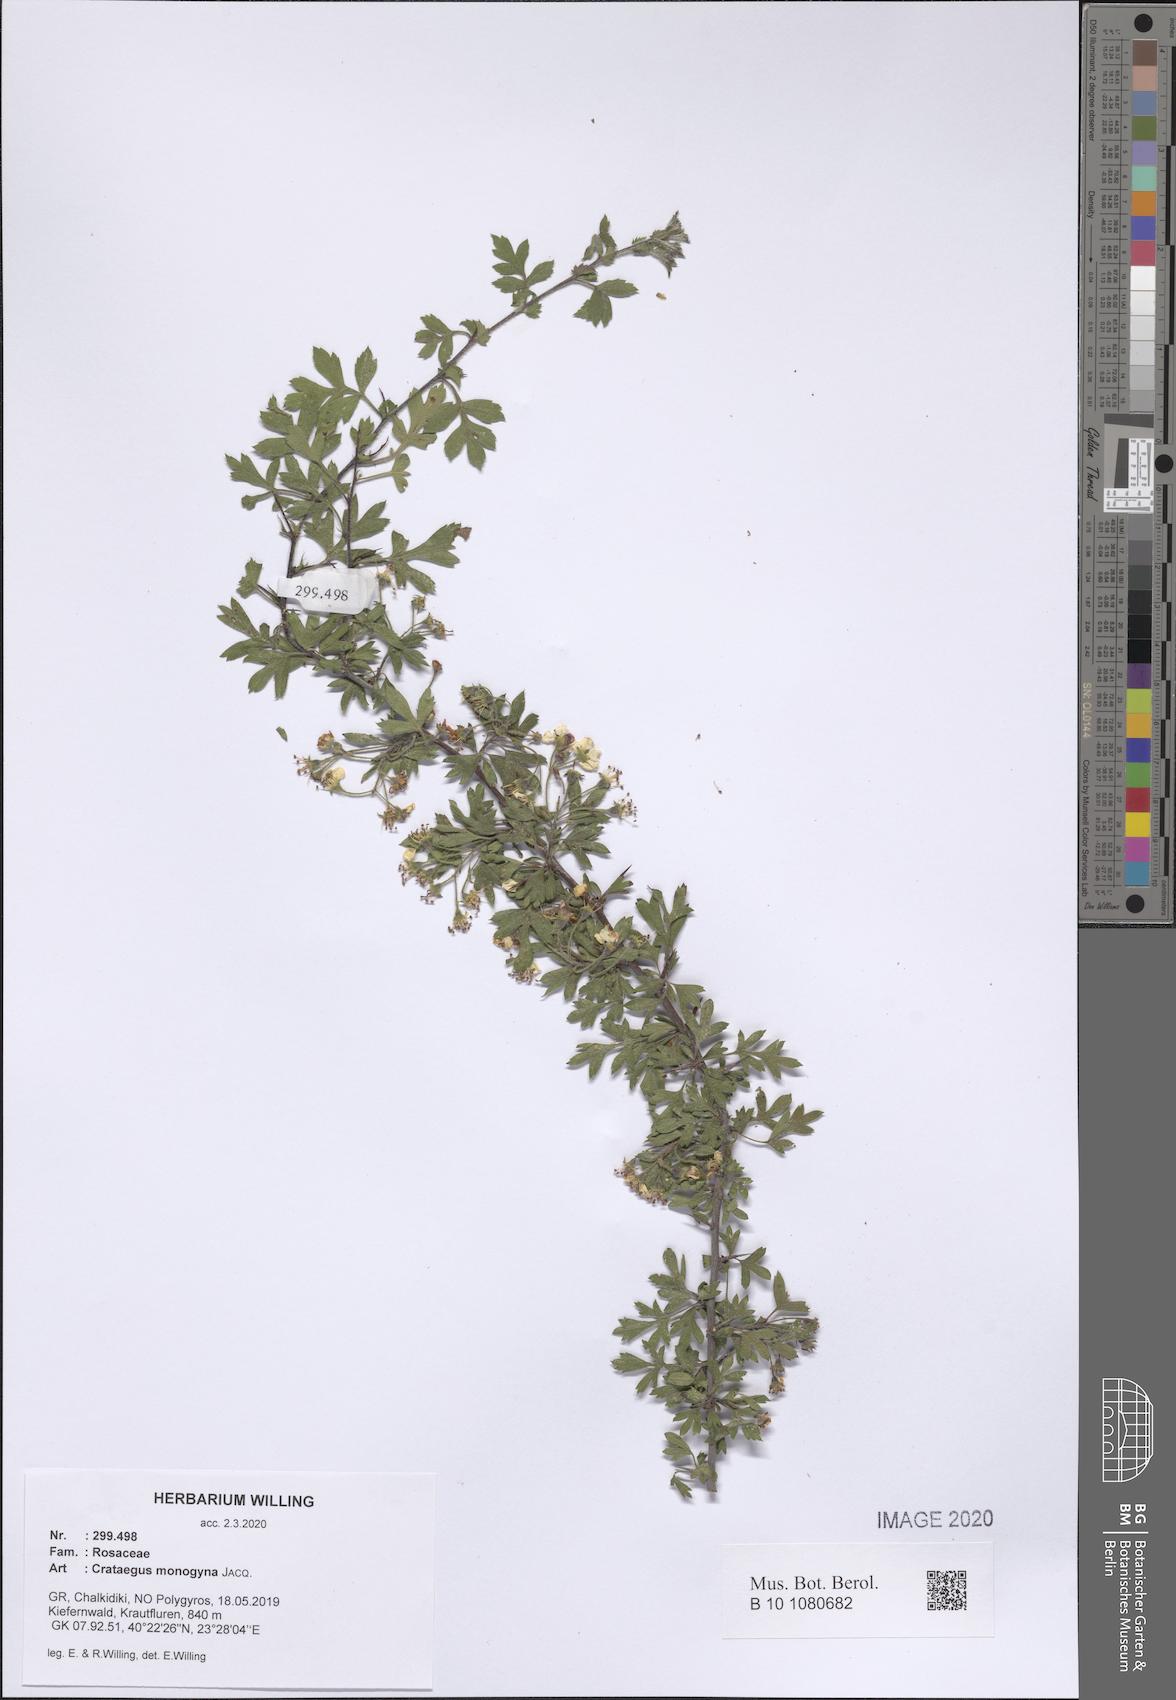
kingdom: Plantae
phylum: Tracheophyta
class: Magnoliopsida
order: Rosales
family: Rosaceae
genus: Crataegus
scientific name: Crataegus monogyna
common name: Hawthorn
